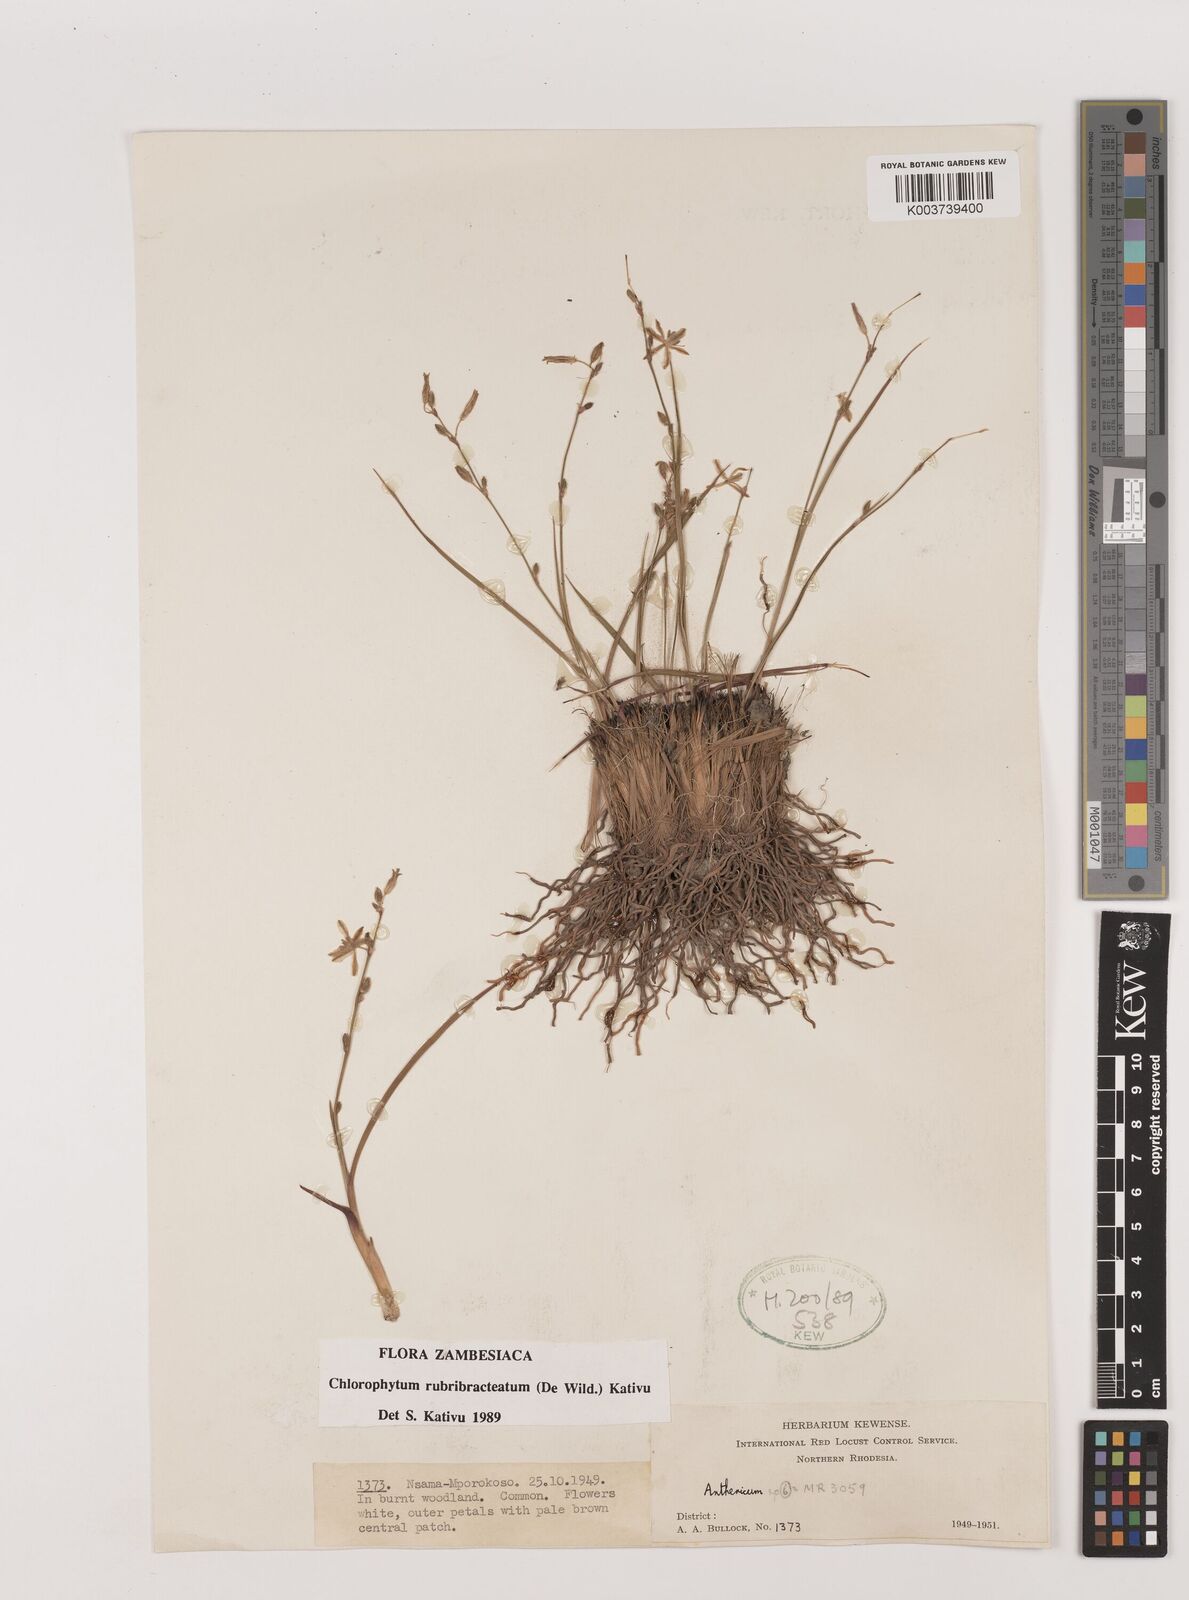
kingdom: Plantae
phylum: Tracheophyta
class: Liliopsida
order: Asparagales
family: Asparagaceae
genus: Chlorophytum
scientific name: Chlorophytum rubribracteatum
